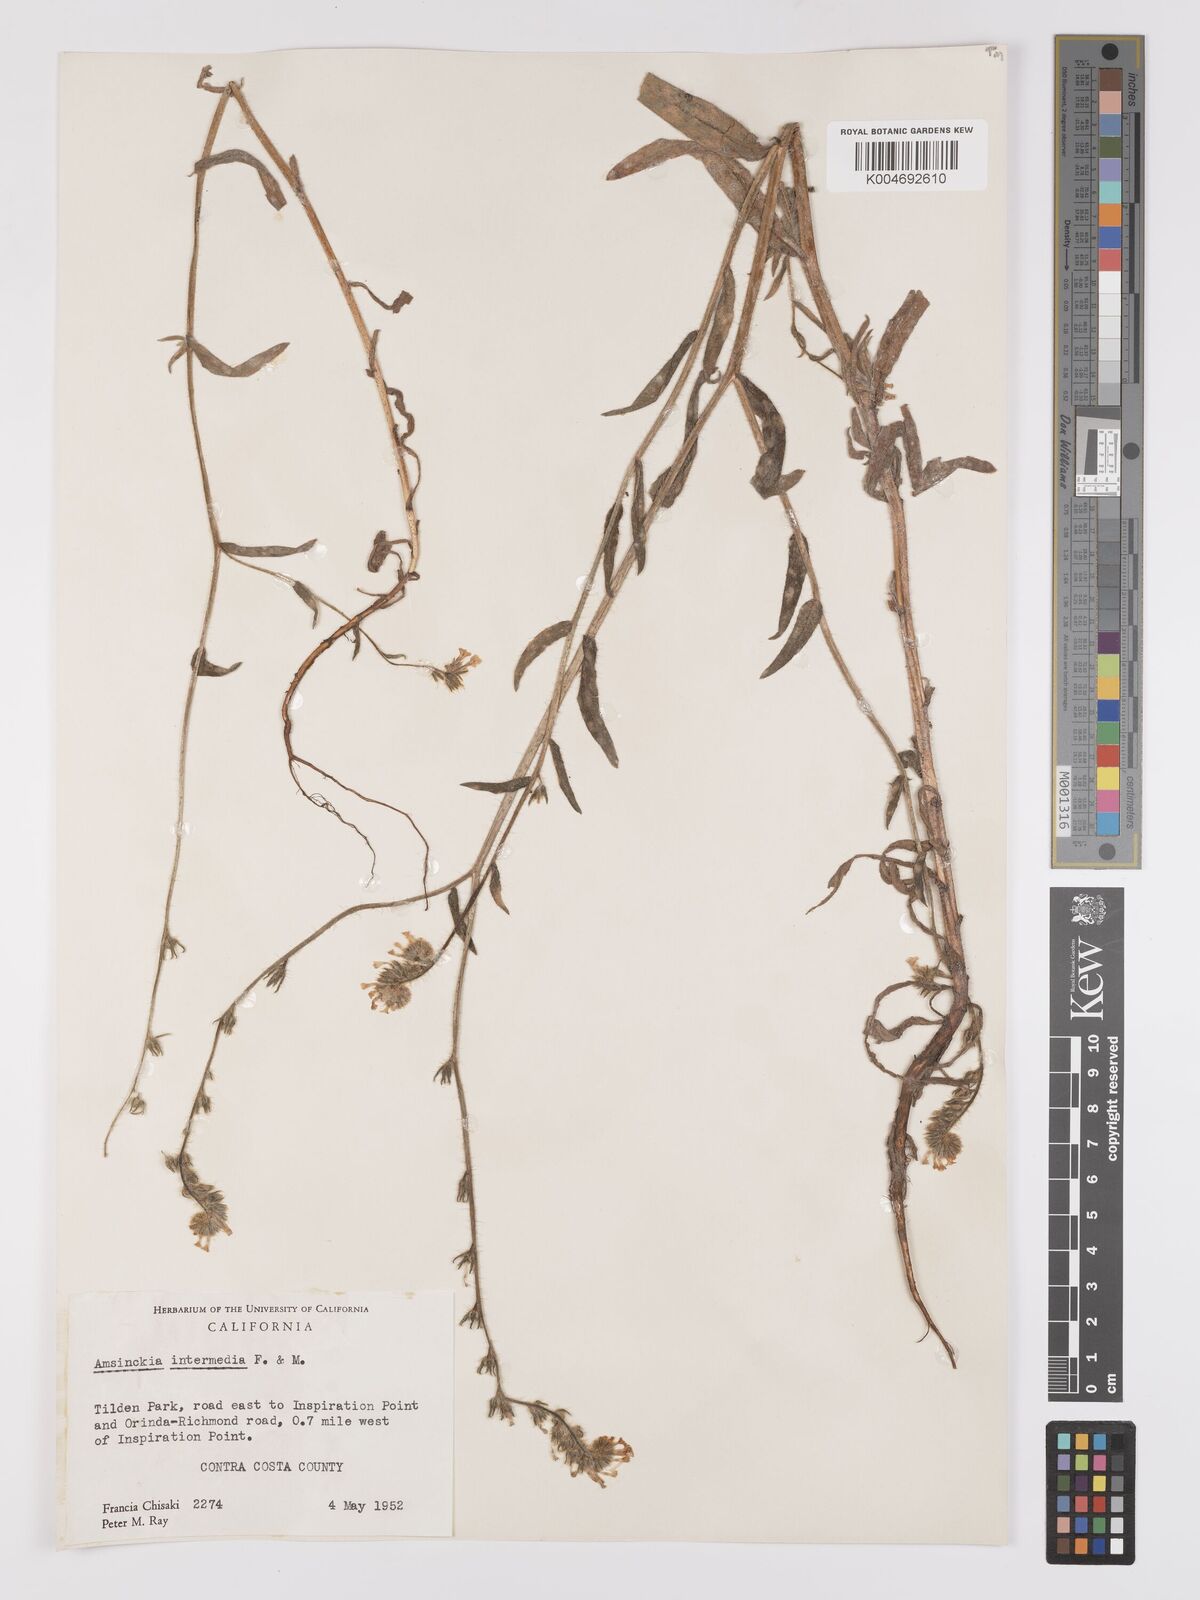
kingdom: Plantae
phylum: Tracheophyta
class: Magnoliopsida
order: Boraginales
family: Boraginaceae
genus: Amsinckia
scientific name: Amsinckia menziesii
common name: Menzies' fiddleneck
